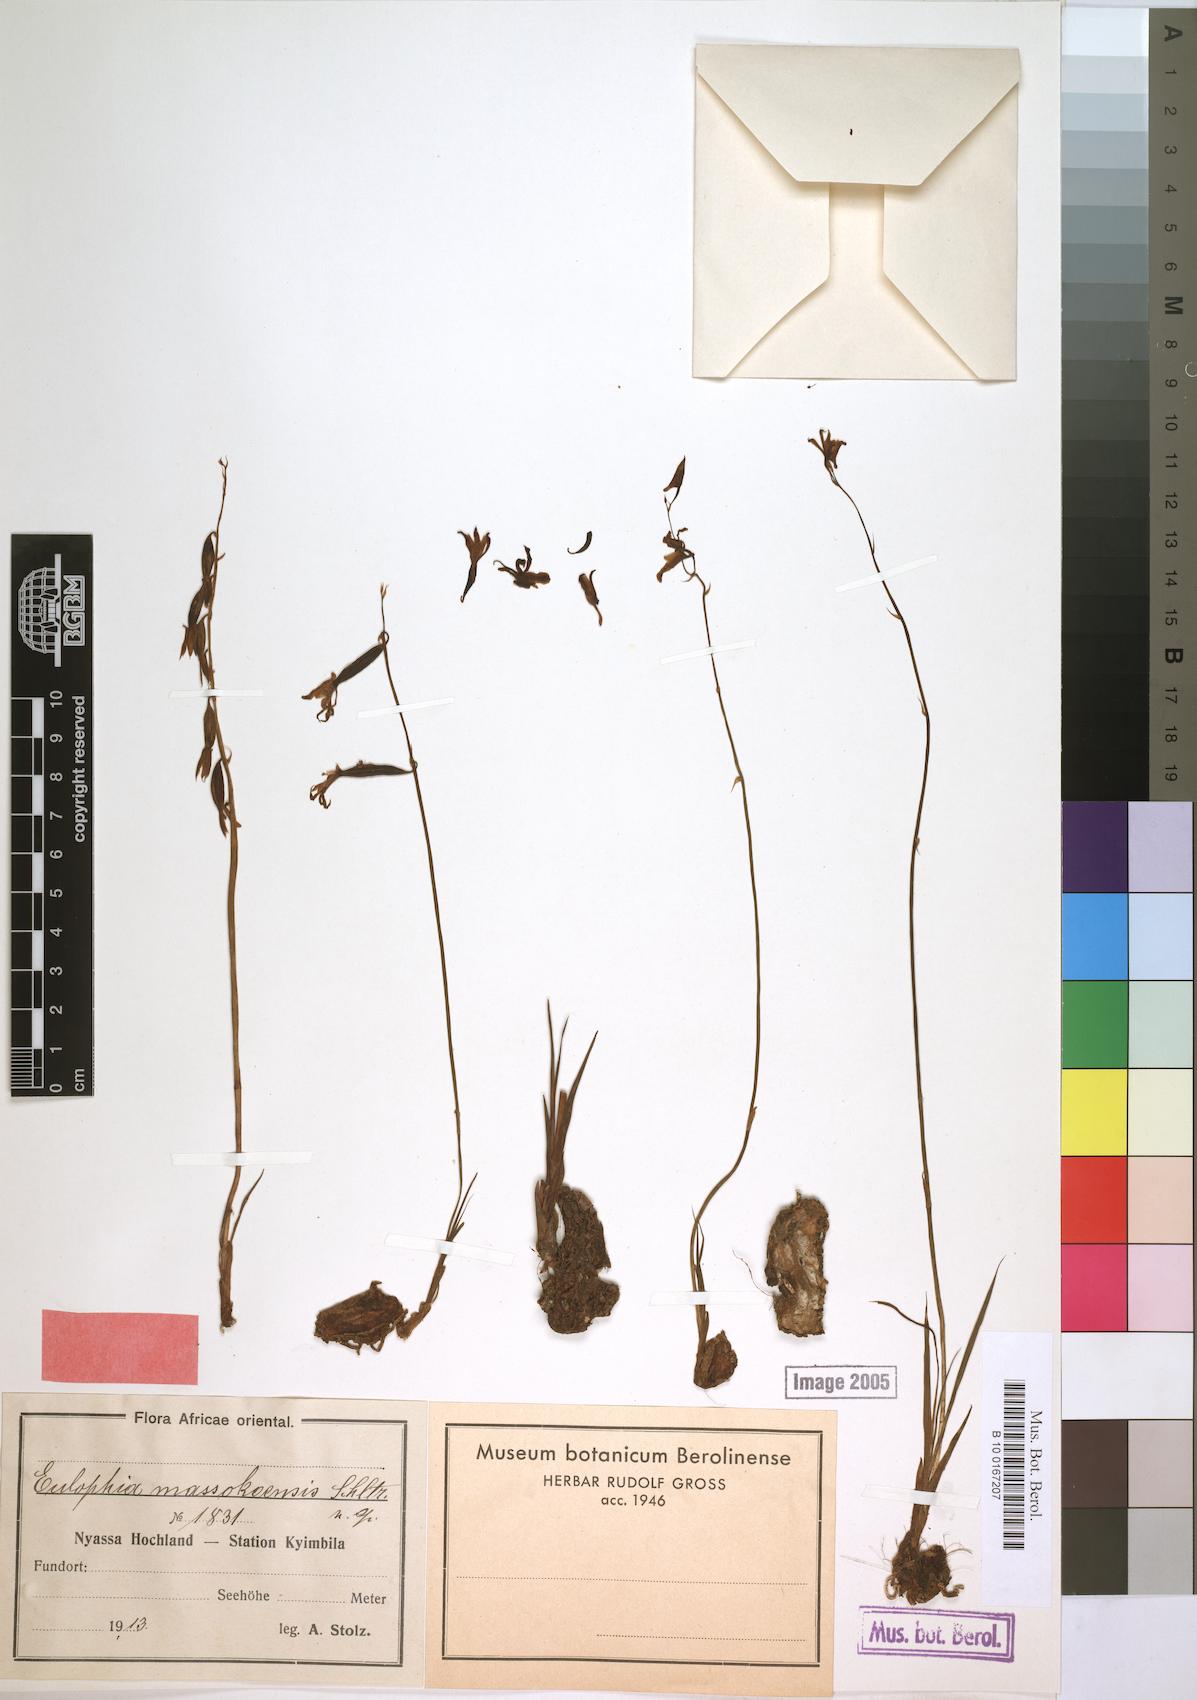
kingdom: Plantae
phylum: Tracheophyta
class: Liliopsida
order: Asparagales
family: Orchidaceae
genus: Eulophia
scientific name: Eulophia massokoensis
